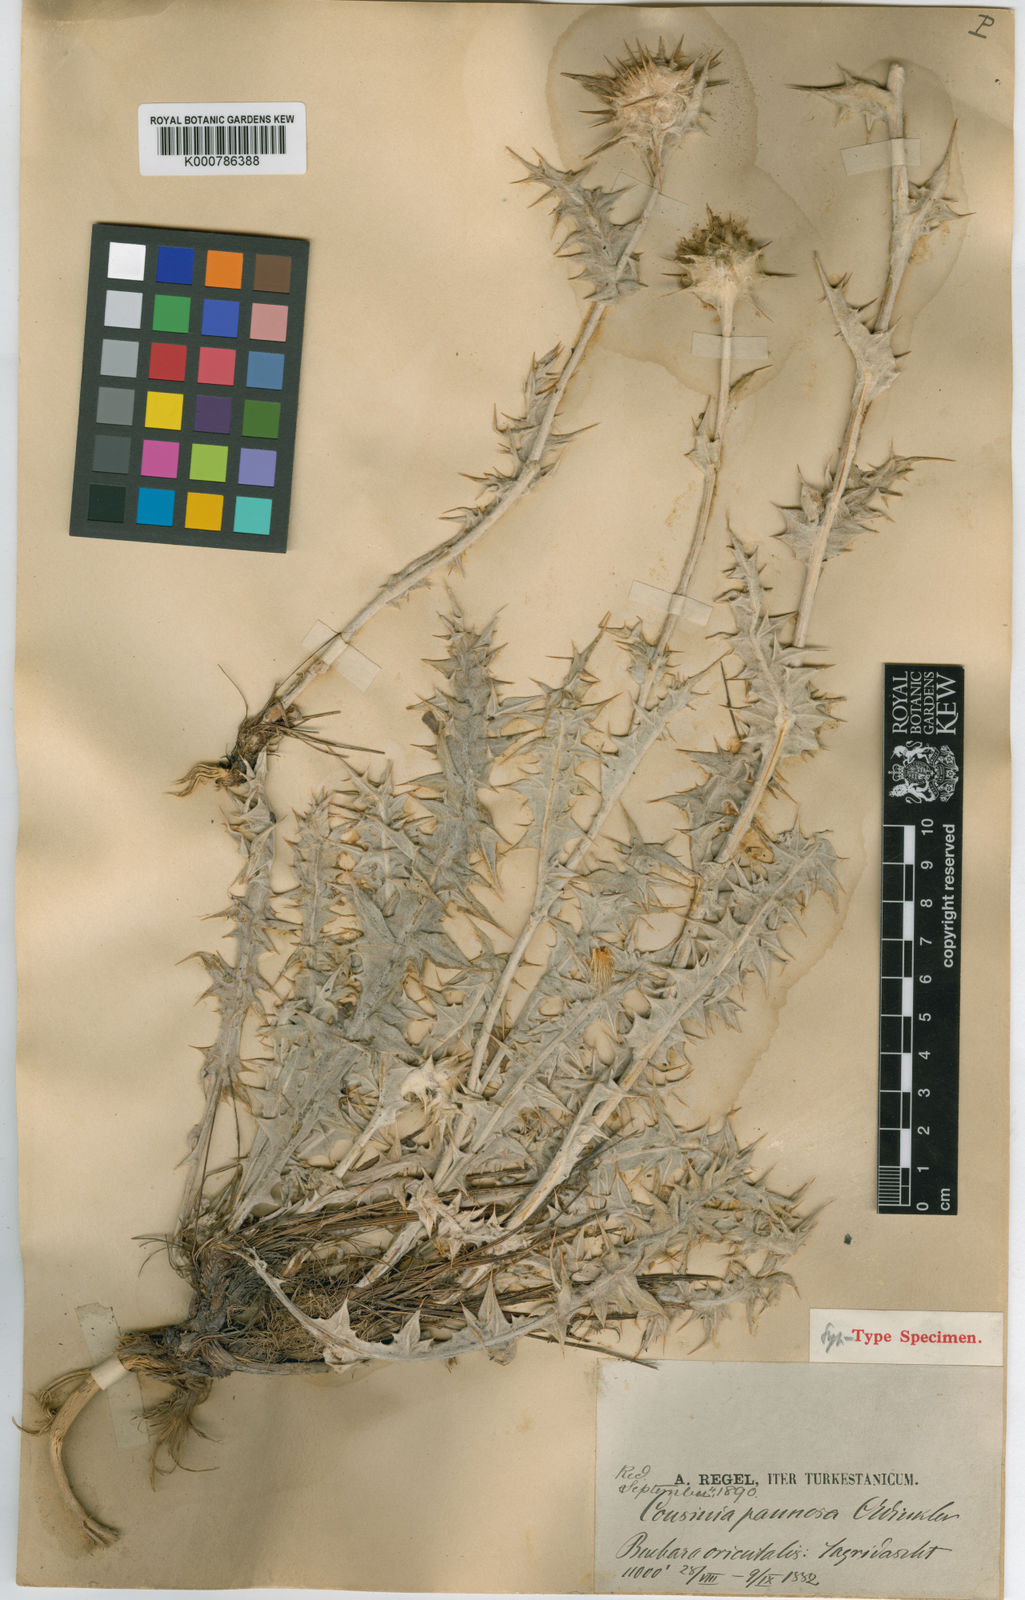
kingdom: Plantae
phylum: Tracheophyta
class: Magnoliopsida
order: Asterales
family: Asteraceae
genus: Cousinia
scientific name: Cousinia pannosa
